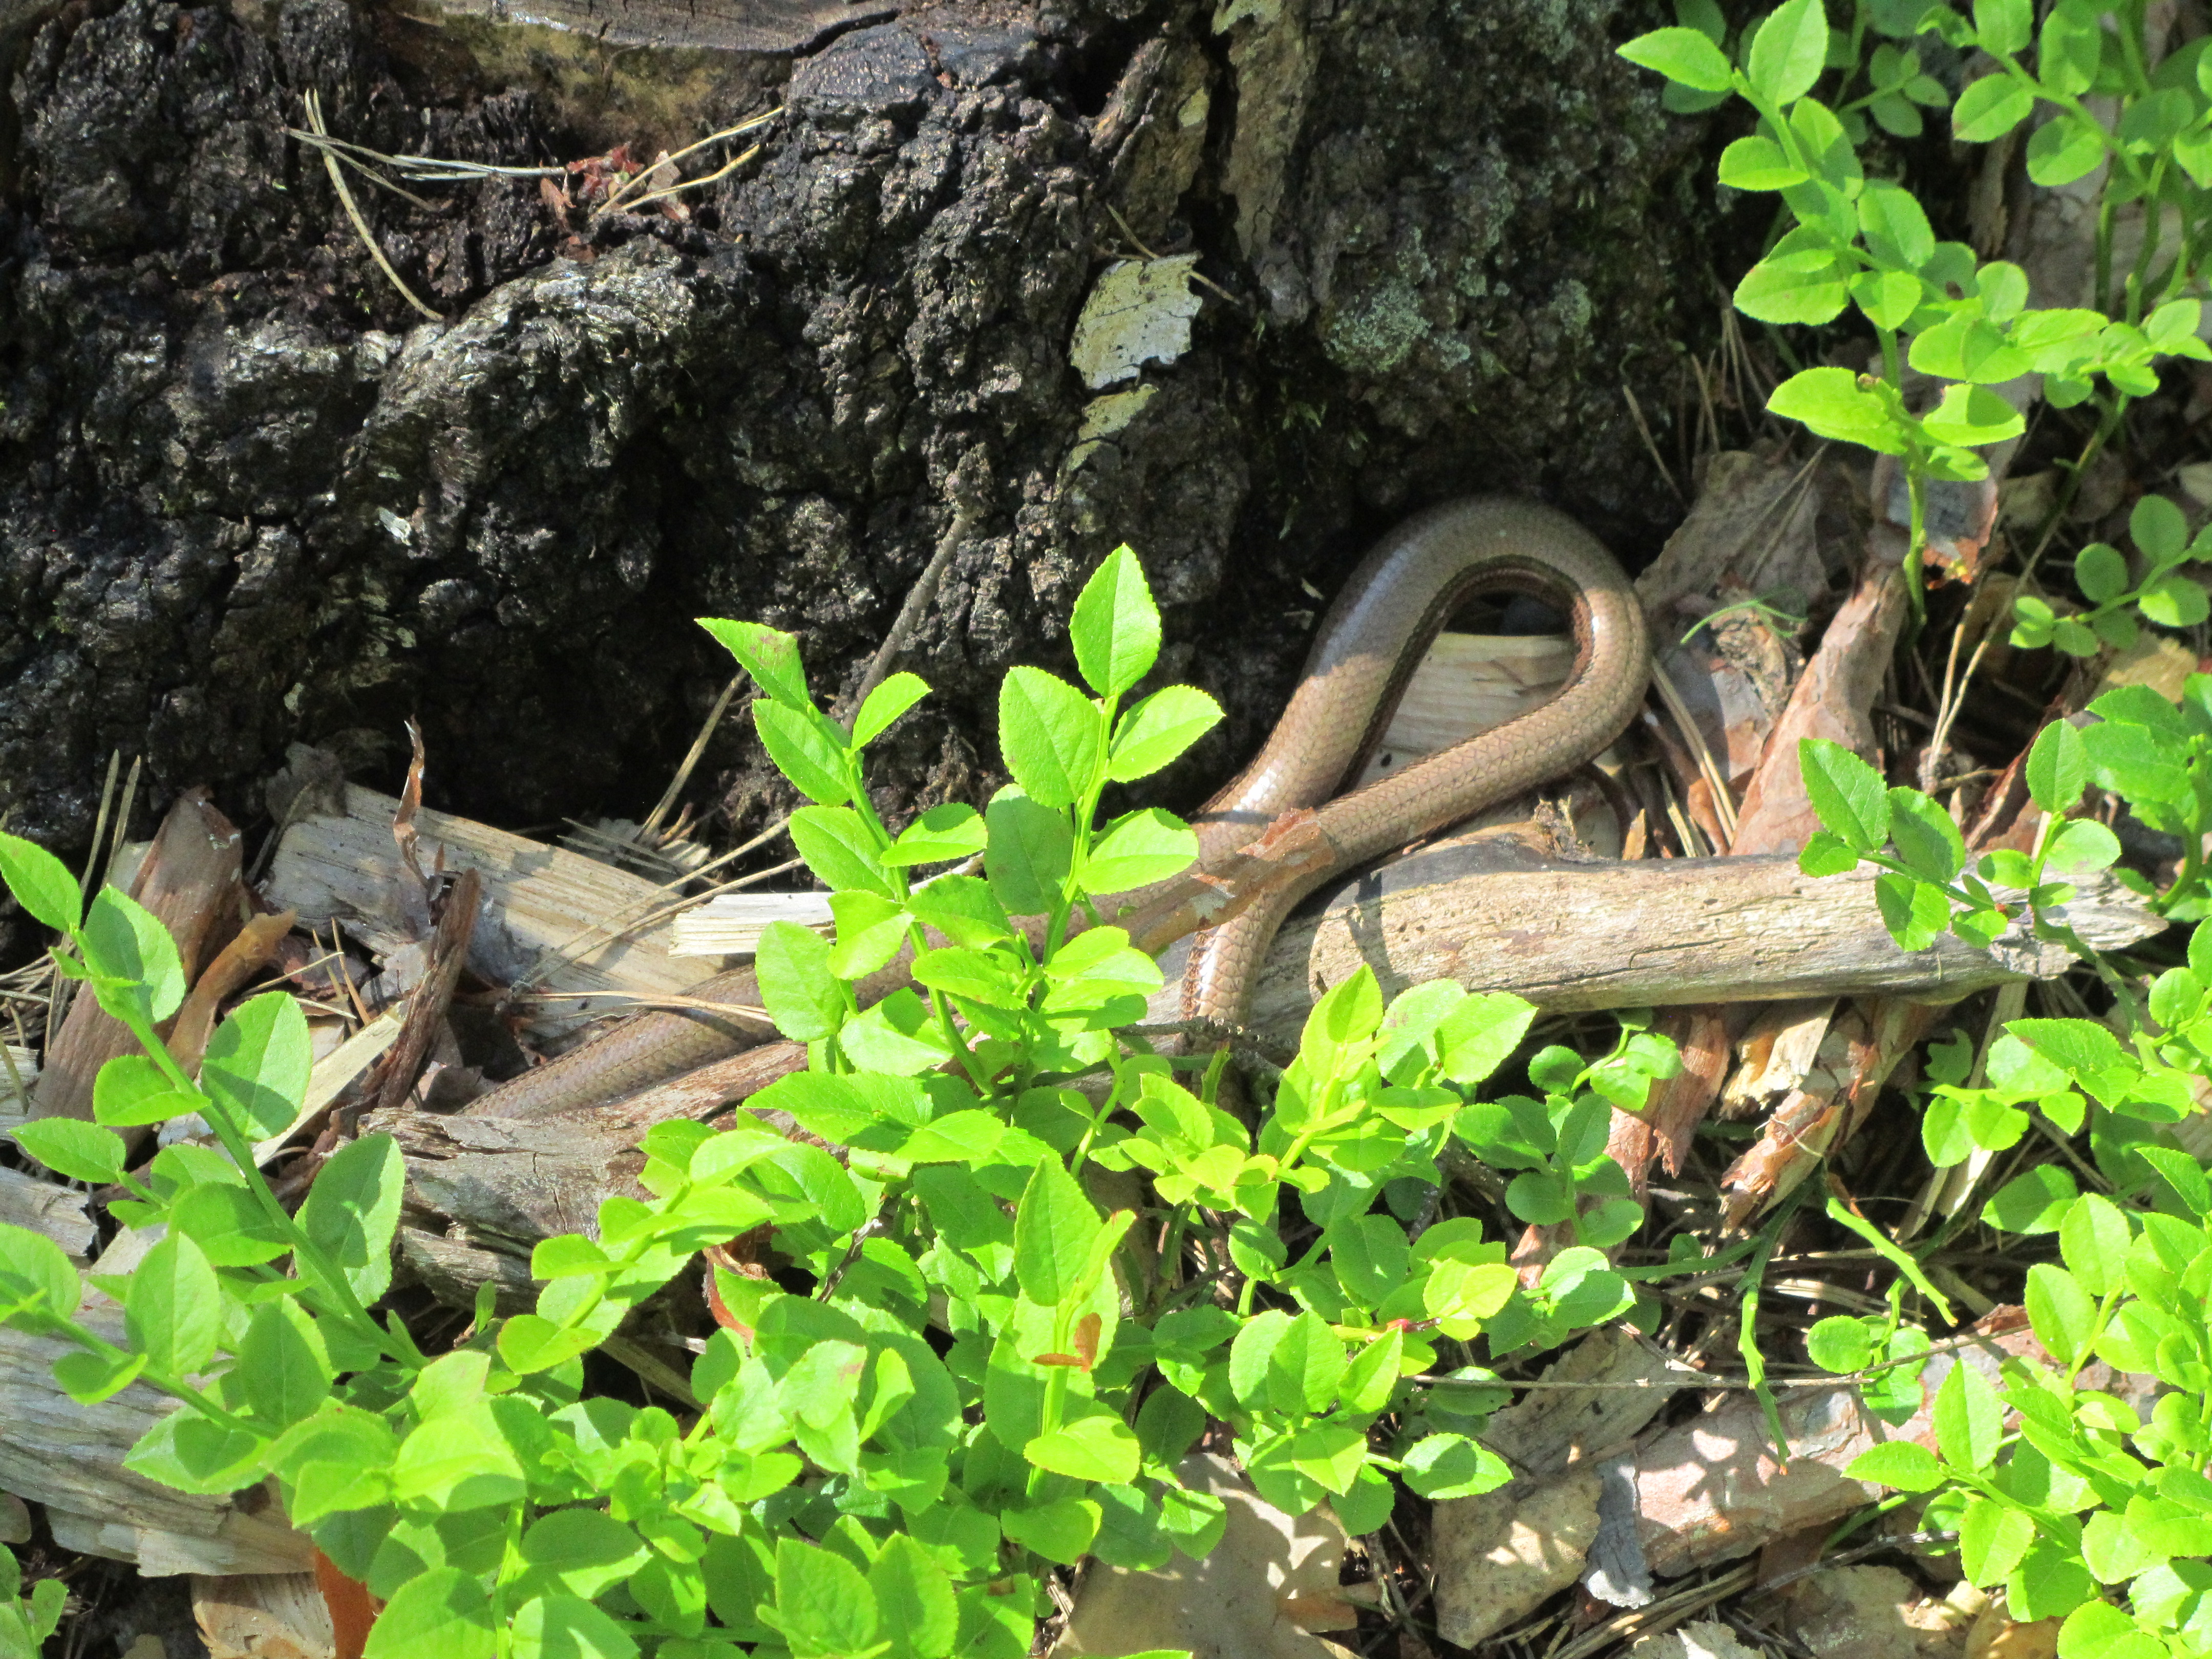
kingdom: Animalia
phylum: Chordata
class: Squamata
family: Anguidae
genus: Anguis
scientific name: Anguis colchica
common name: Slow worm
